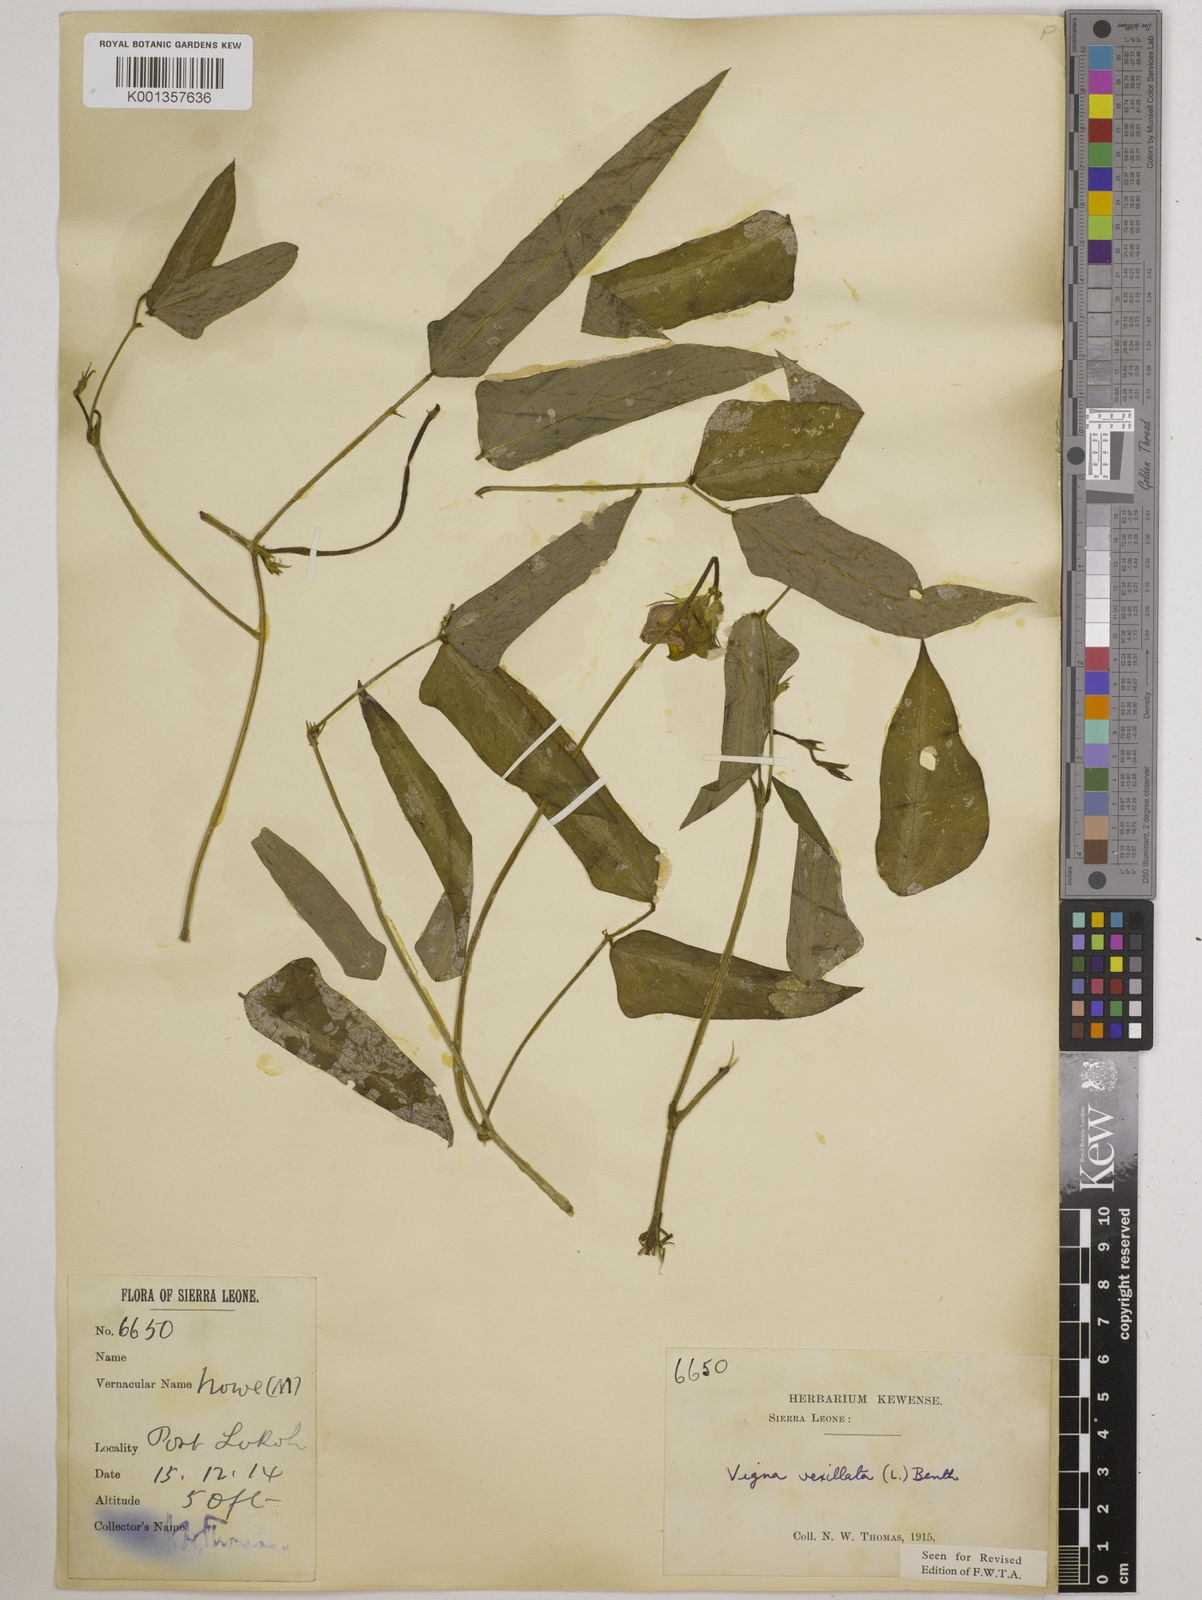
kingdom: Plantae
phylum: Tracheophyta
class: Magnoliopsida
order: Fabales
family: Fabaceae
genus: Vigna
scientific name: Vigna vexillata
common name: Zombi pea
